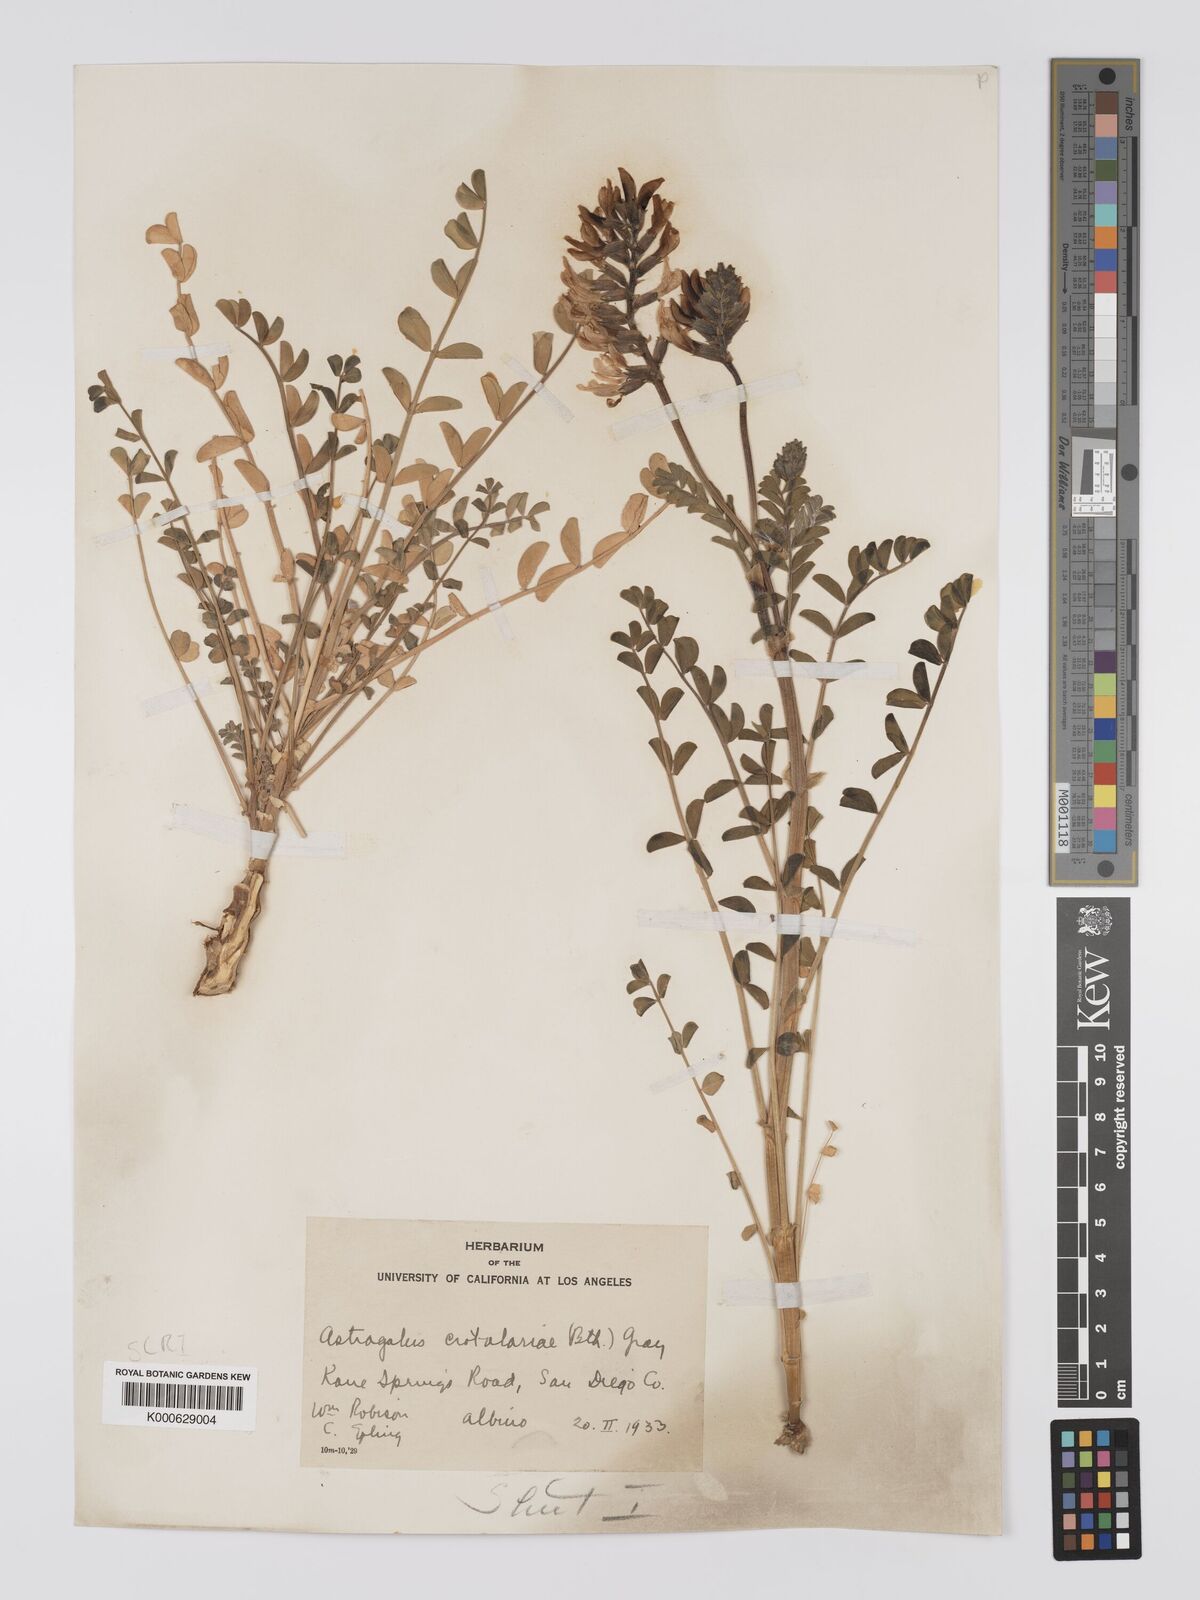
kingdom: Plantae
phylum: Tracheophyta
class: Magnoliopsida
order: Fabales
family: Fabaceae
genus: Astragalus
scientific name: Astragalus crotalariae
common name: Salton milkvetch
